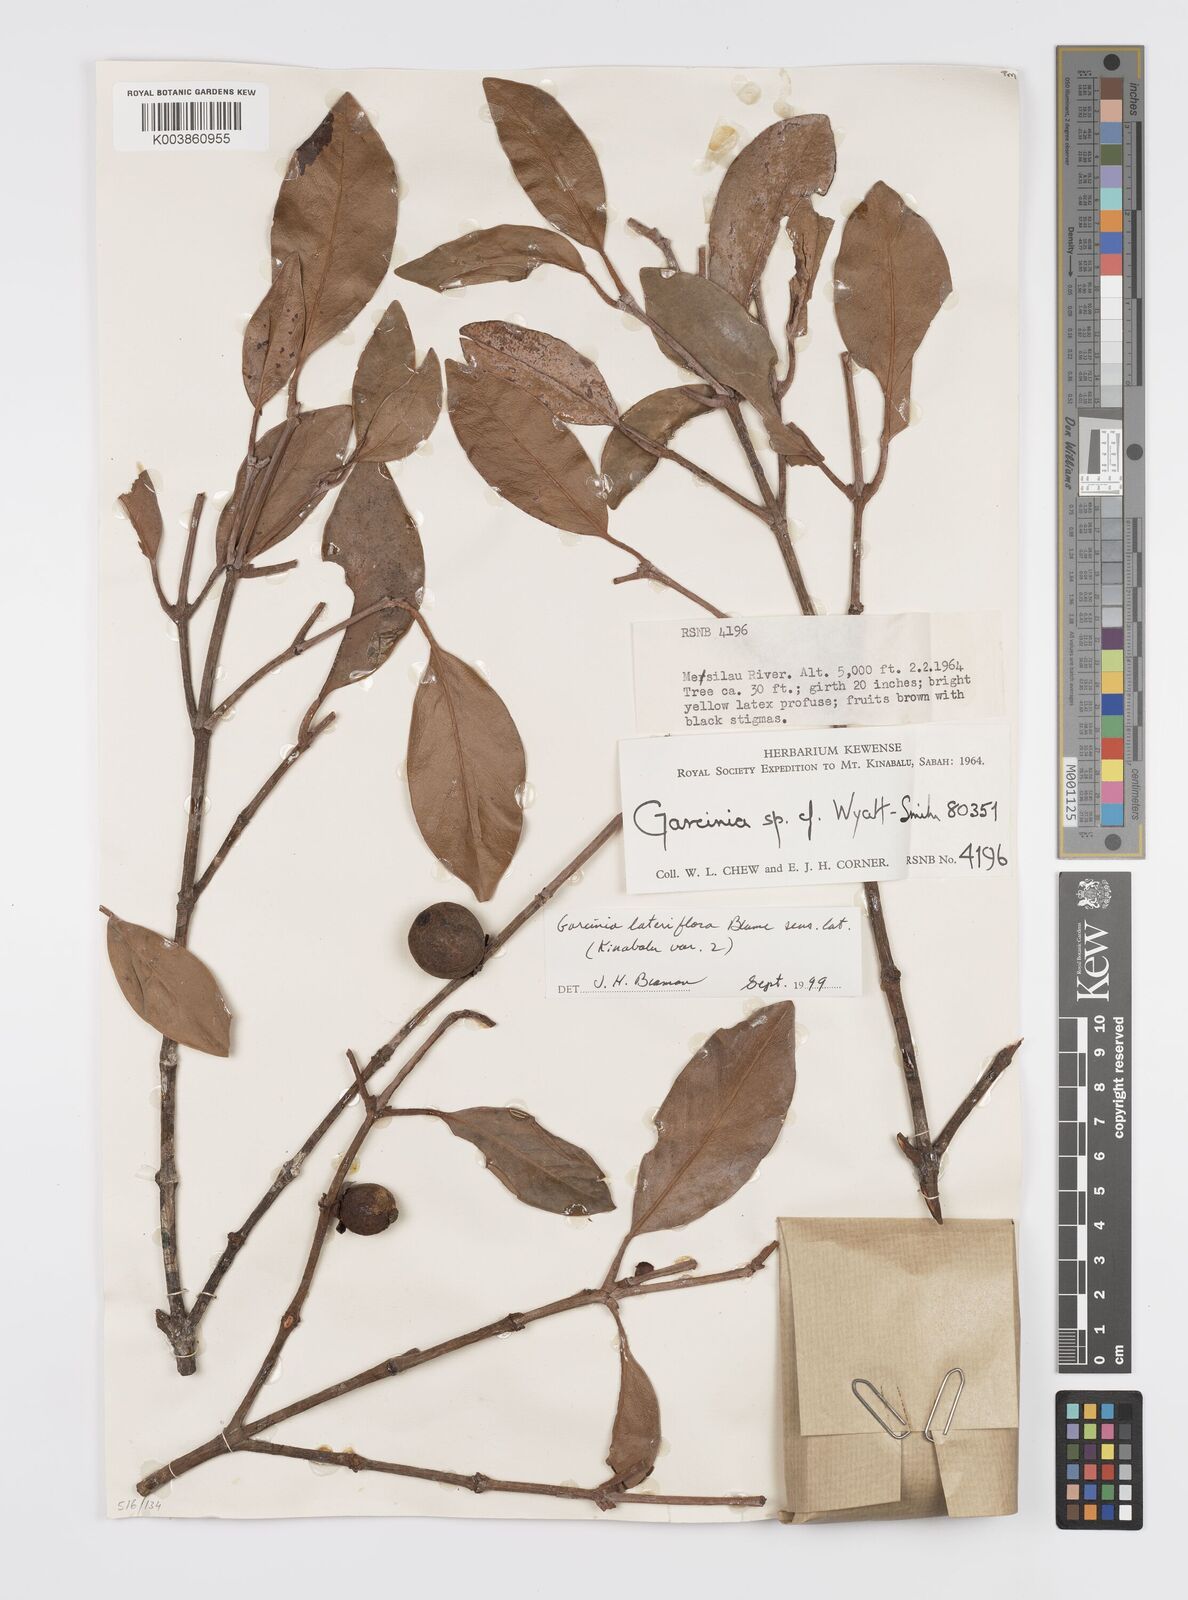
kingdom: Plantae
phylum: Tracheophyta
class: Magnoliopsida
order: Malpighiales
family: Clusiaceae
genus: Garcinia
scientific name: Garcinia lateriflora
